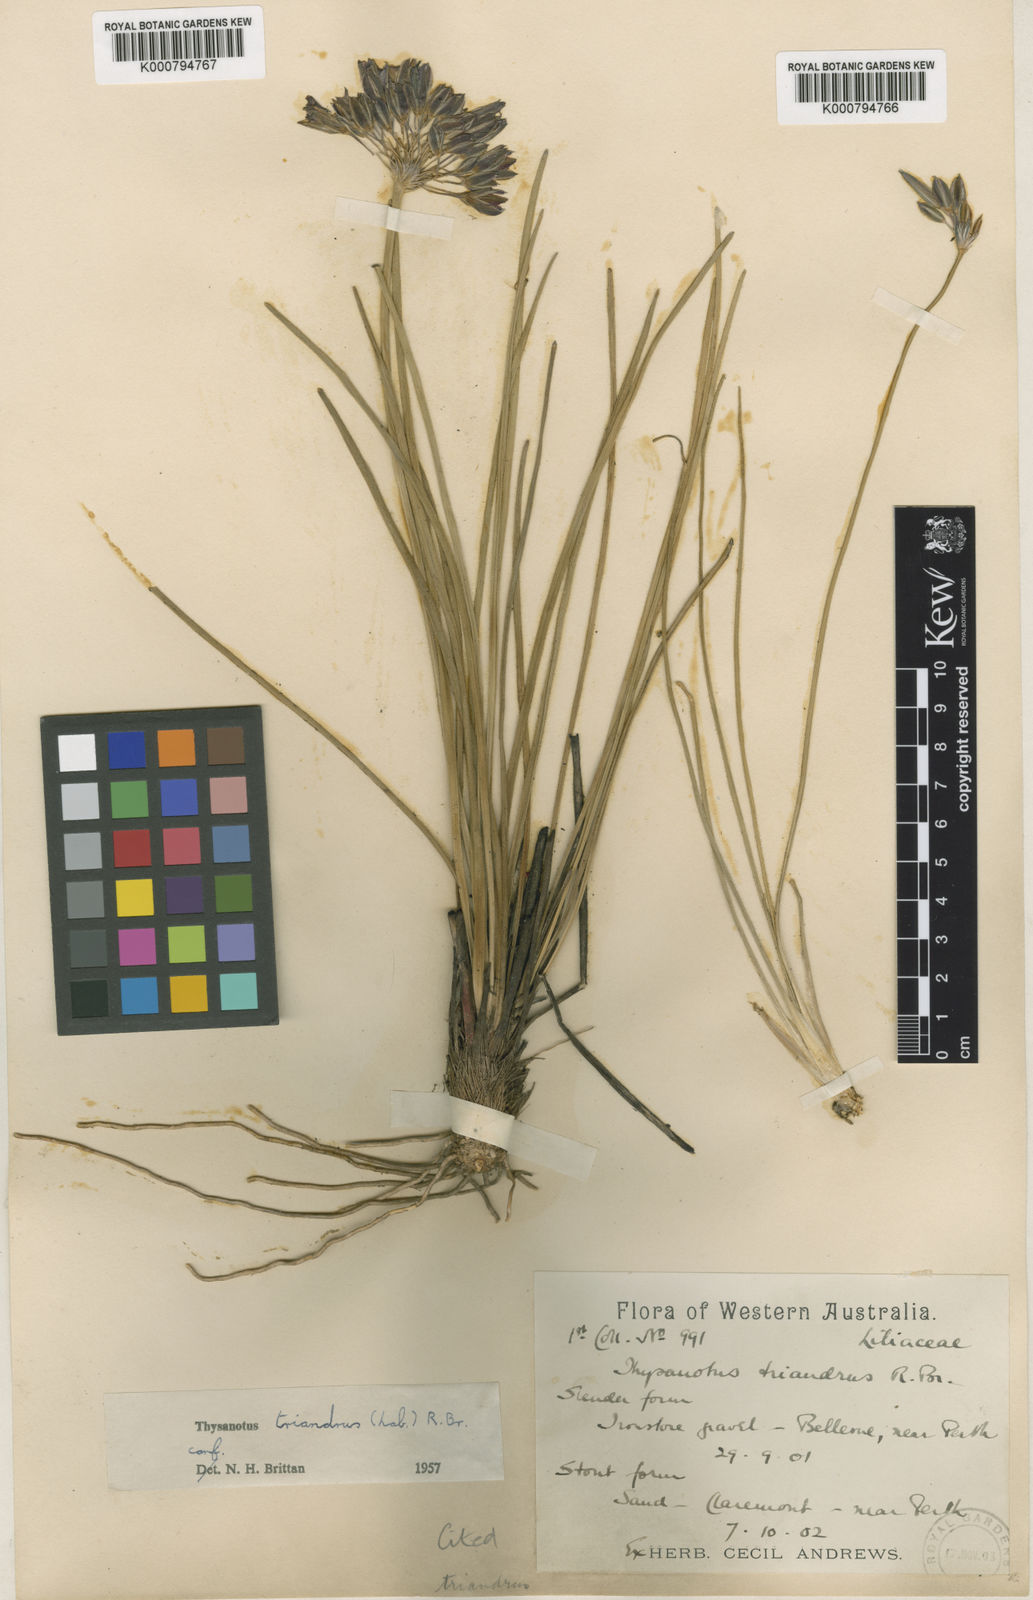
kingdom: Plantae
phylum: Tracheophyta
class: Liliopsida
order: Asparagales
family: Asparagaceae
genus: Thysanotus
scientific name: Thysanotus triandrus
